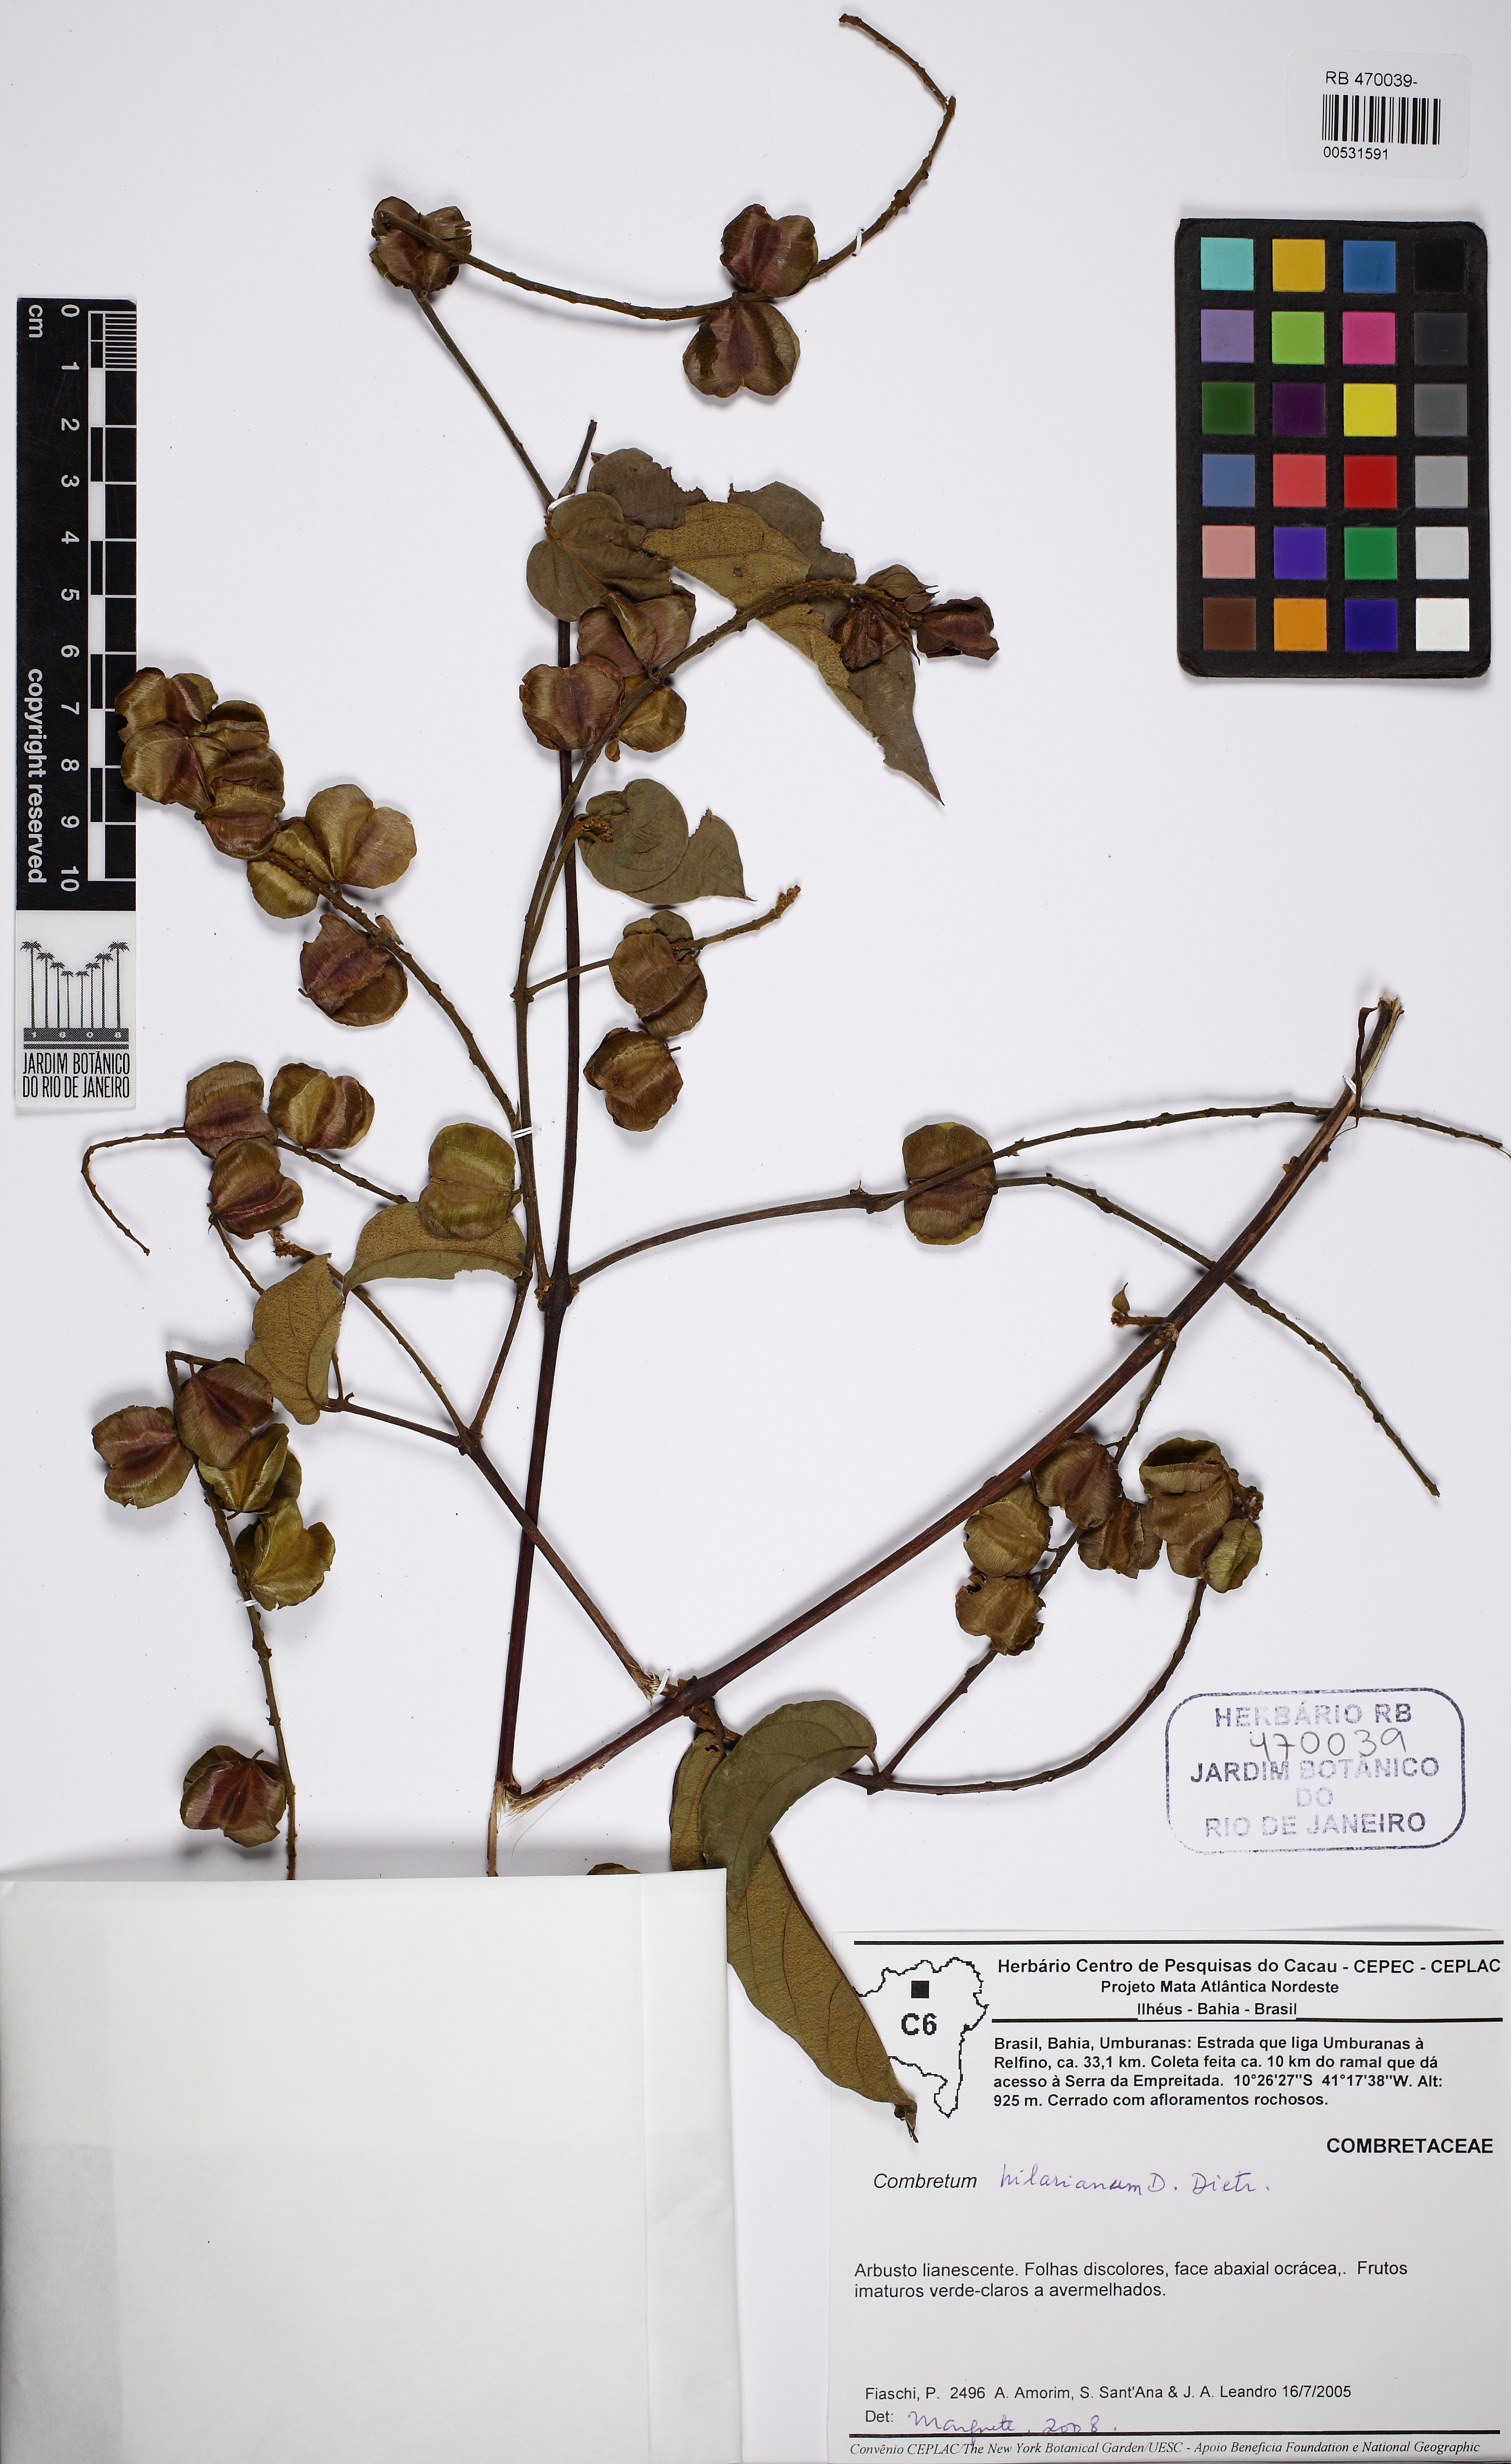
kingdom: Plantae
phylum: Tracheophyta
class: Magnoliopsida
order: Myrtales
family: Combretaceae
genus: Combretum
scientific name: Combretum hilarianum
